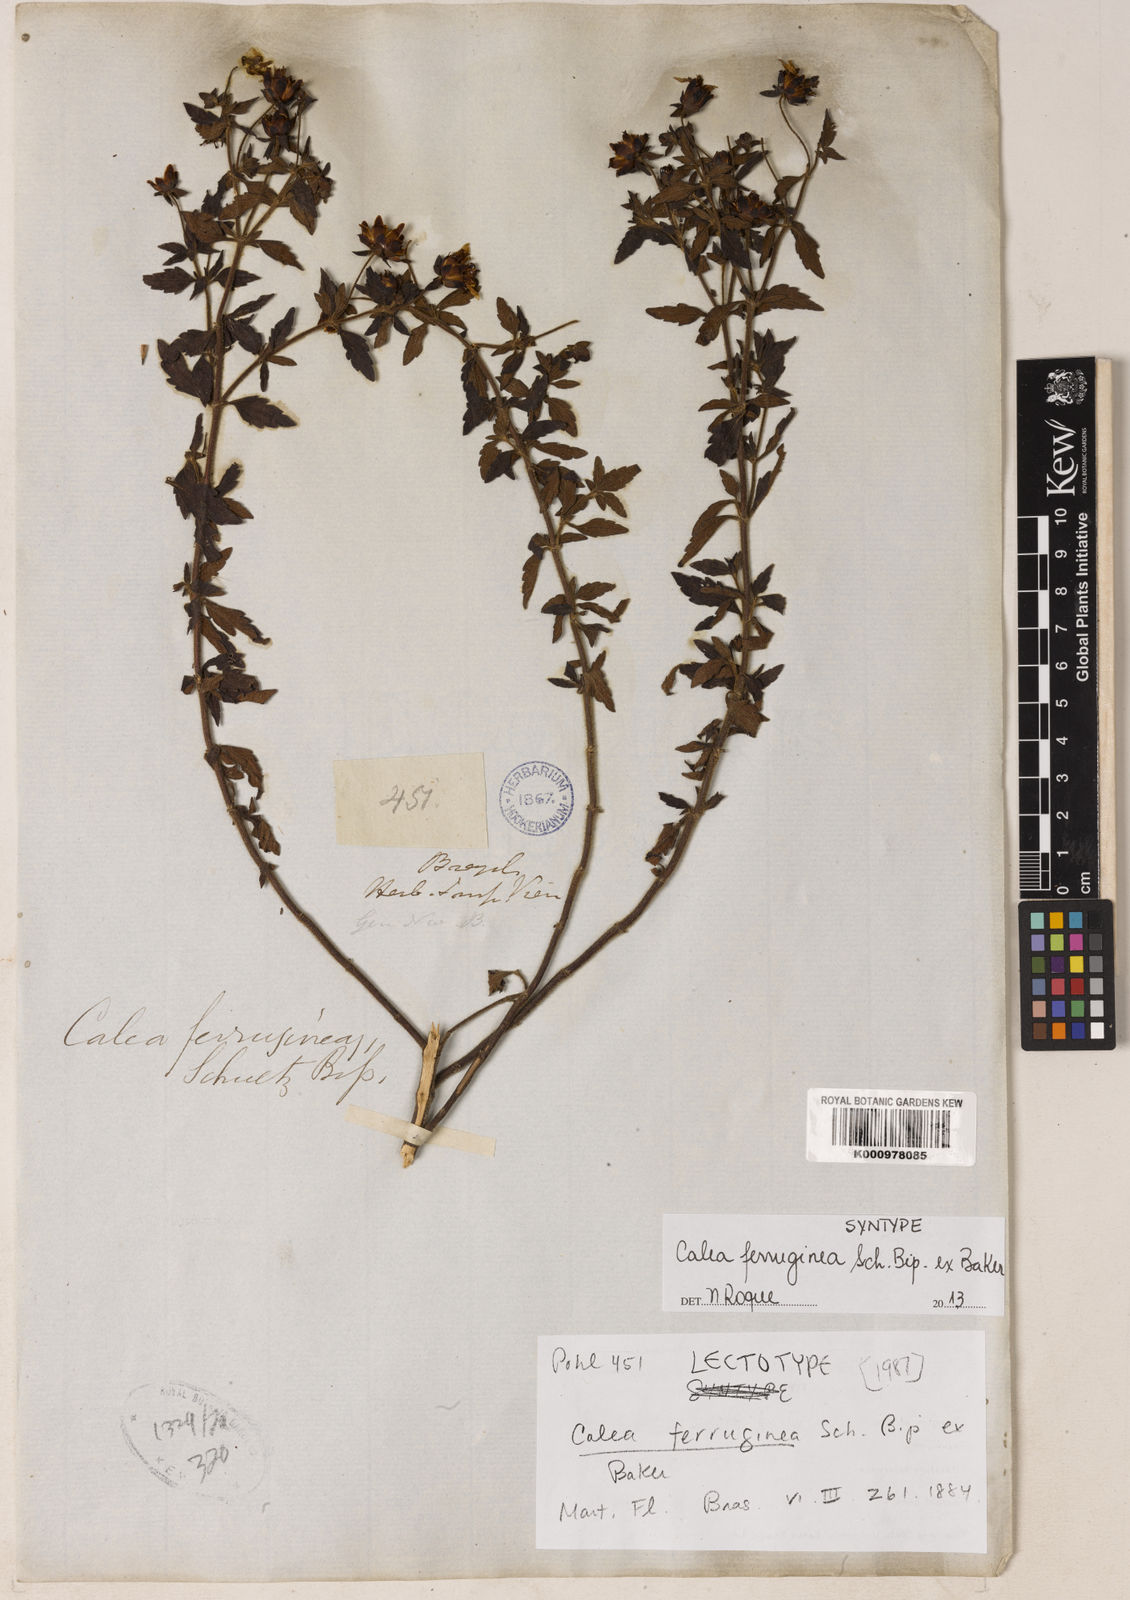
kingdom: Plantae
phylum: Tracheophyta
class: Magnoliopsida
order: Asterales
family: Asteraceae
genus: Calea
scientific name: Calea ferruginea
